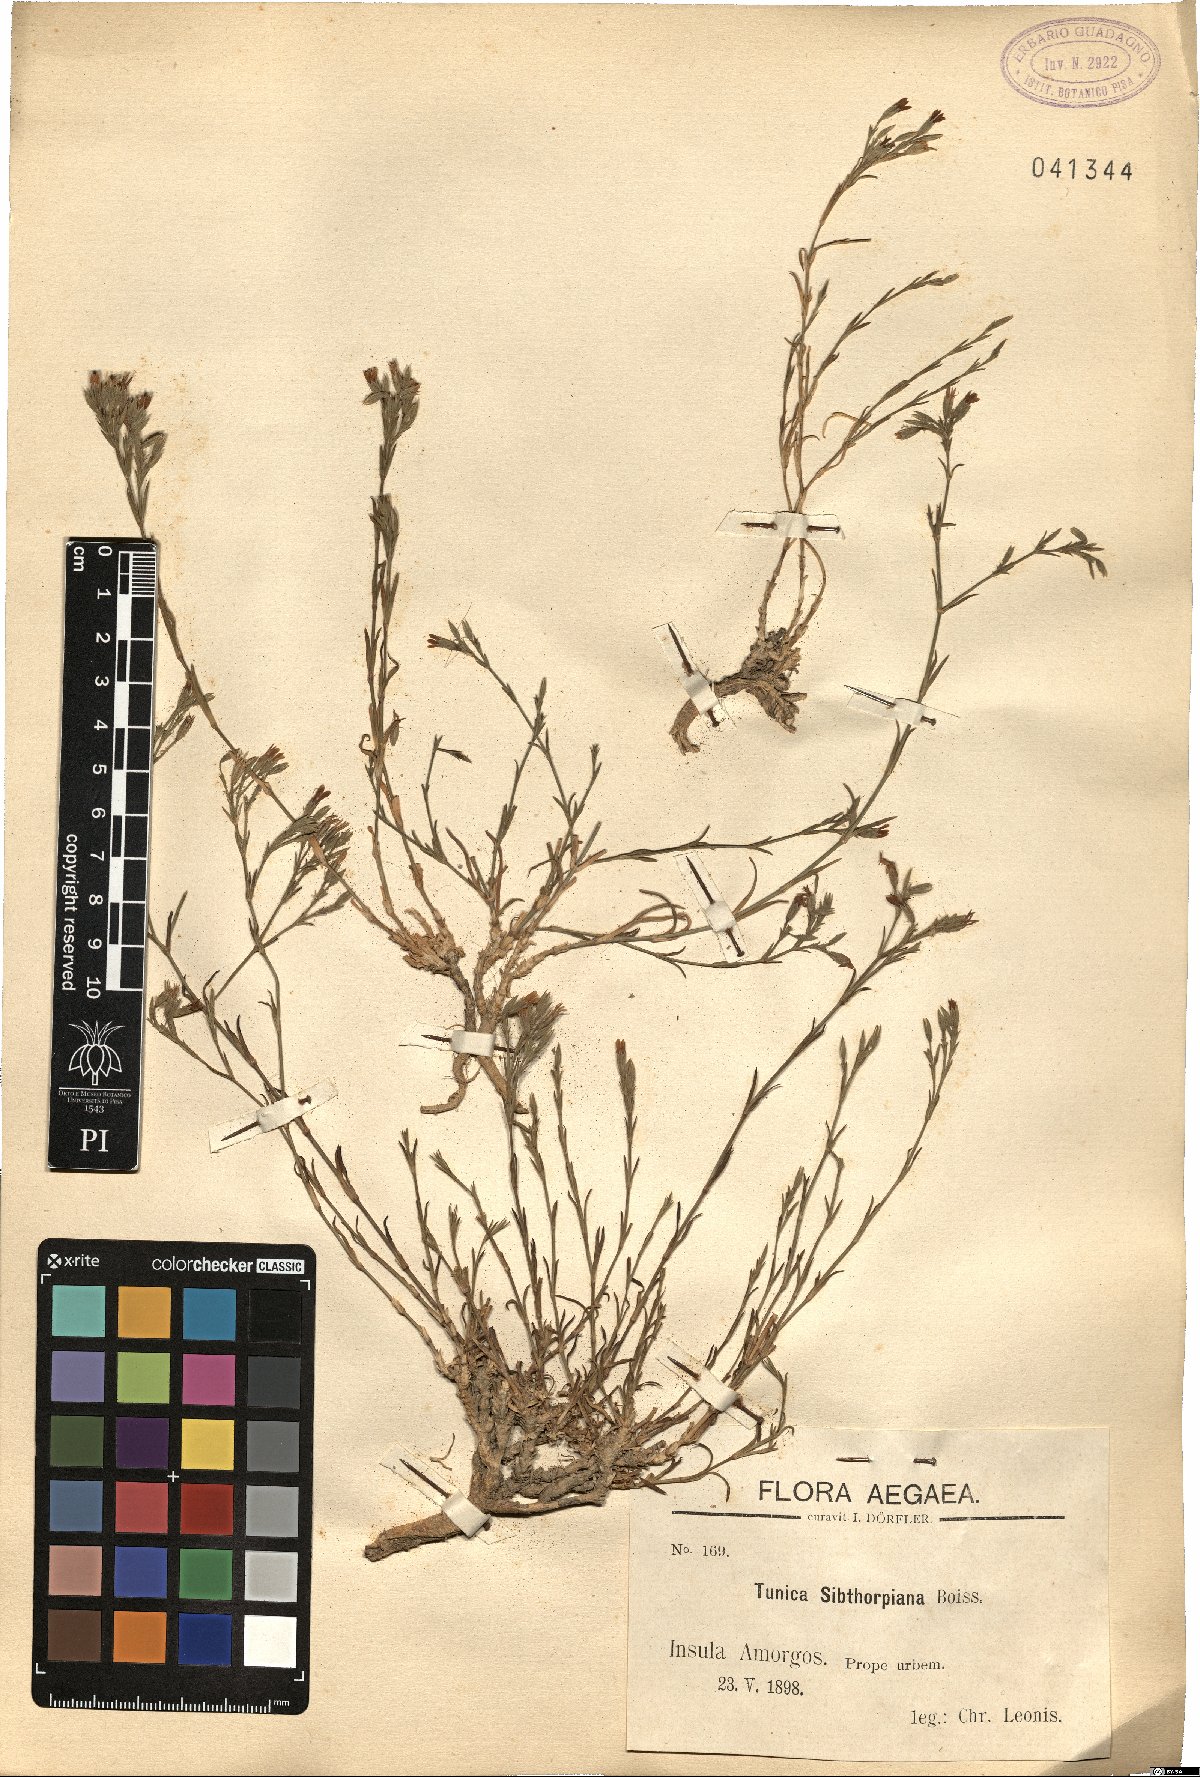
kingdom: Plantae
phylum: Tracheophyta
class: Magnoliopsida
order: Caryophyllales
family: Caryophyllaceae
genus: Dianthus
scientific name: Dianthus tunicoides
